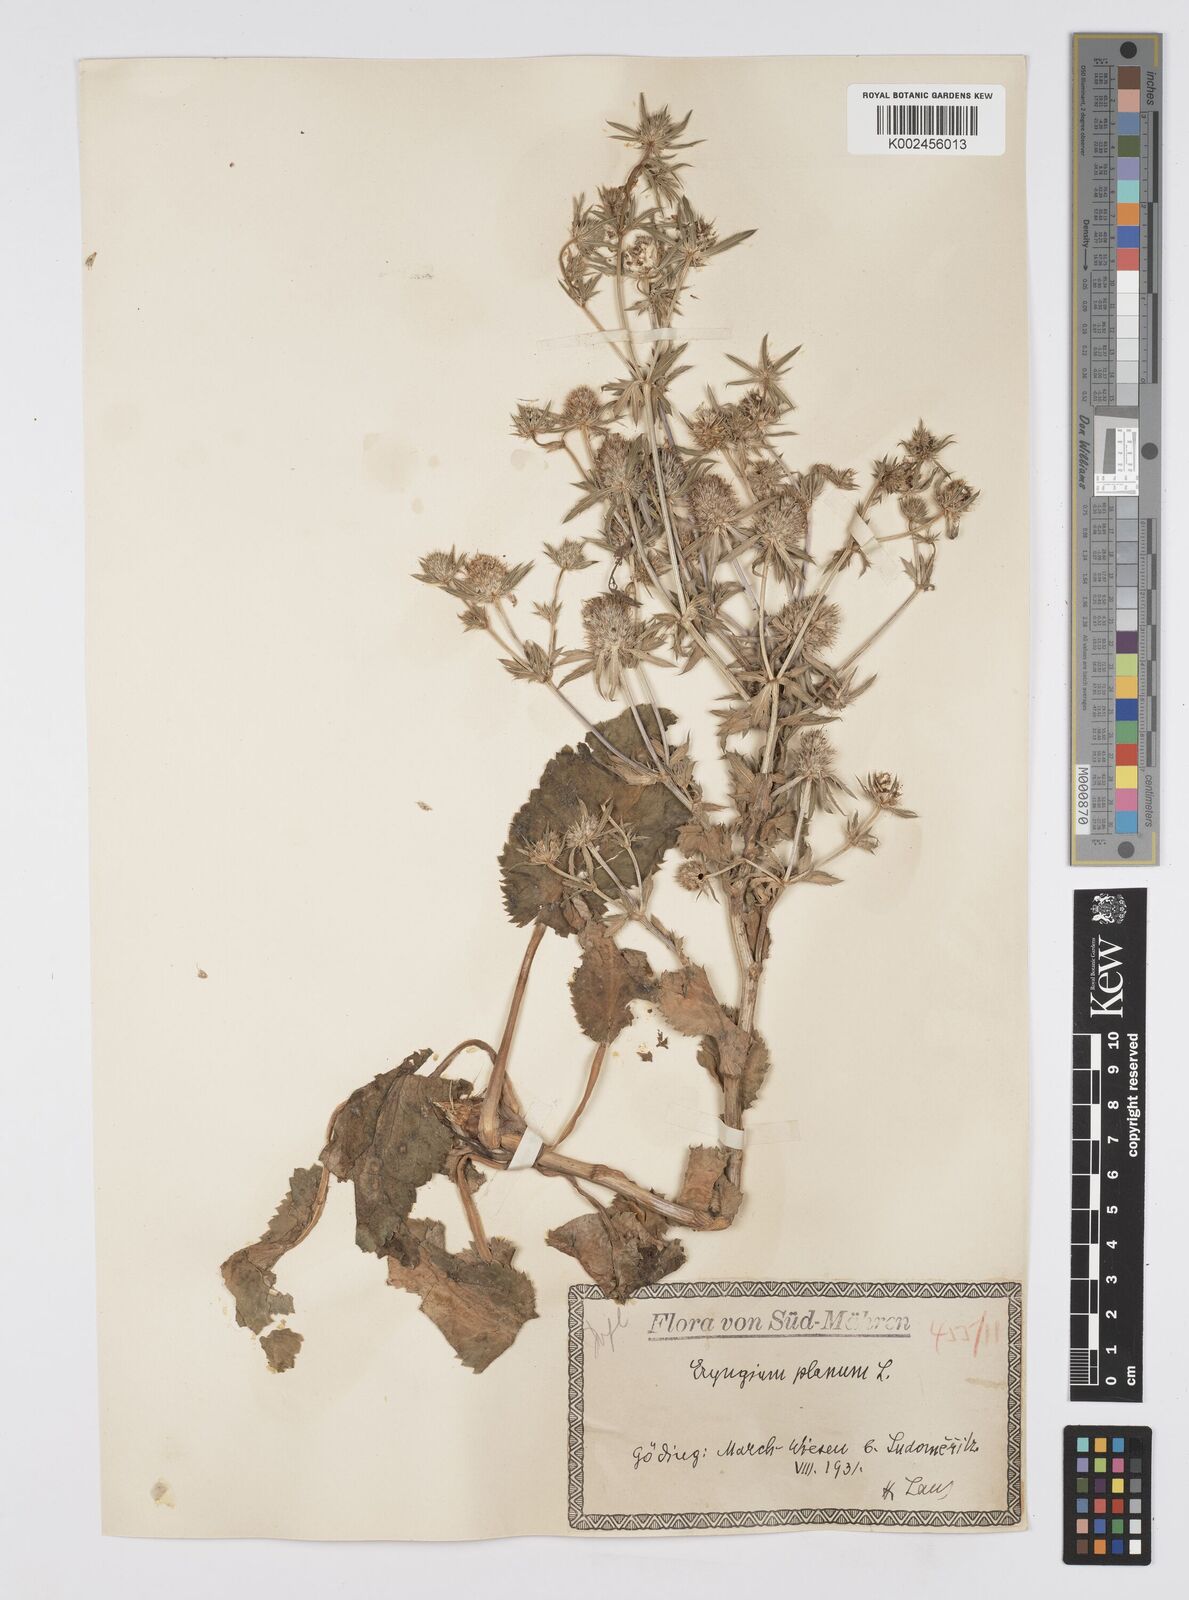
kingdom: Plantae
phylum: Tracheophyta
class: Magnoliopsida
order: Apiales
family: Apiaceae
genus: Eryngium
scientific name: Eryngium planum
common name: Blue eryngo
